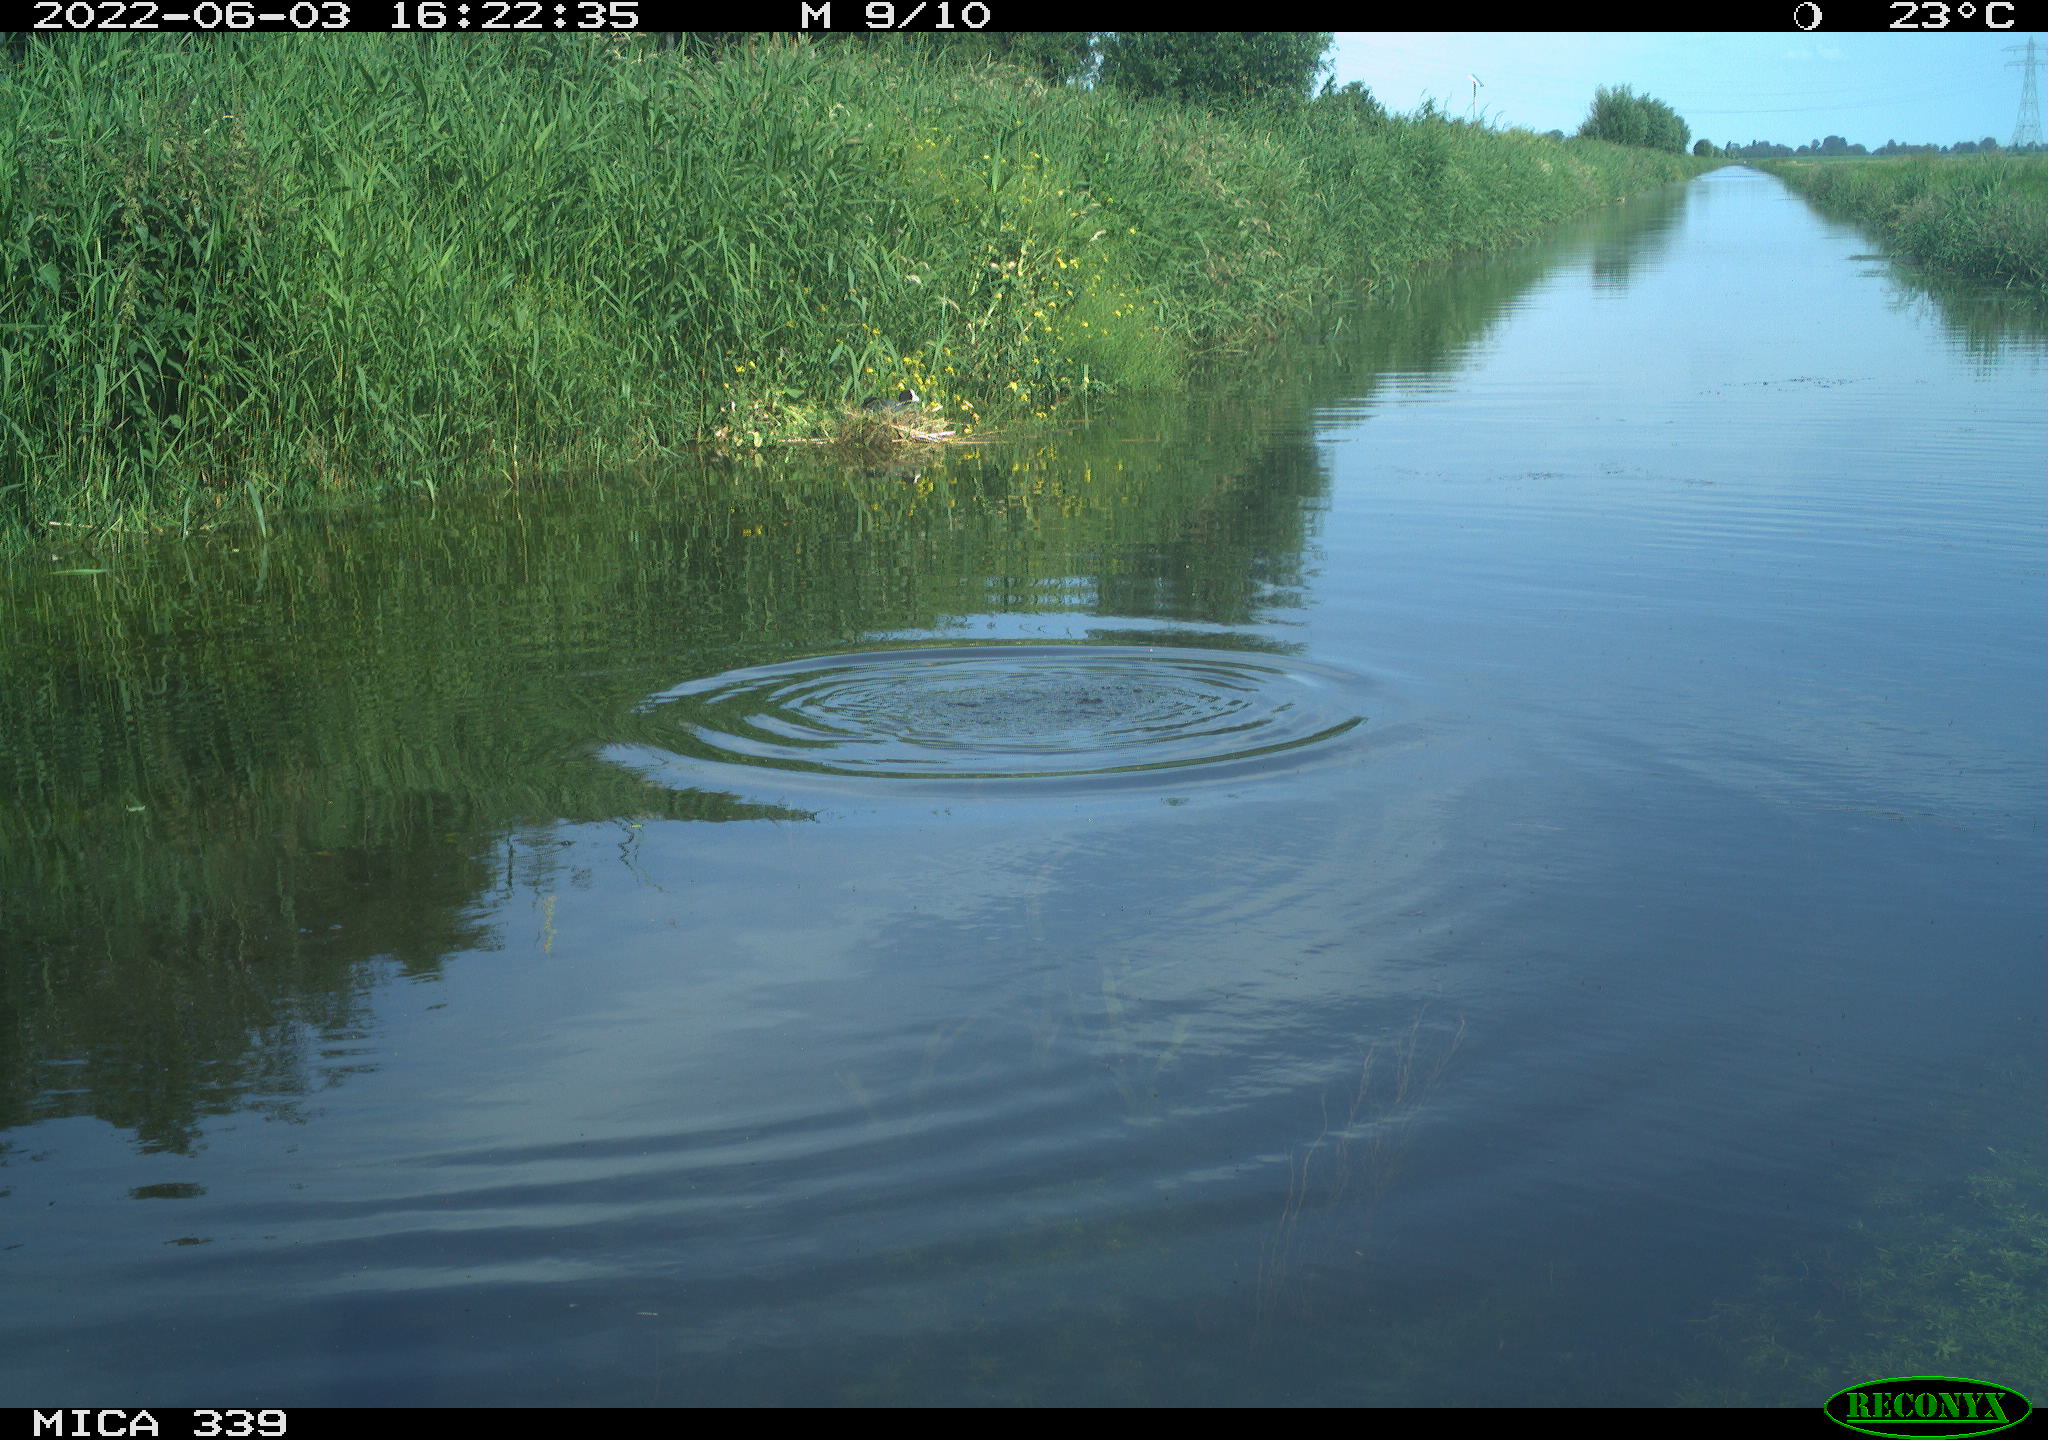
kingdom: Animalia
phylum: Chordata
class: Aves
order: Gruiformes
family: Rallidae
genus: Fulica
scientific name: Fulica atra
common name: Eurasian coot
